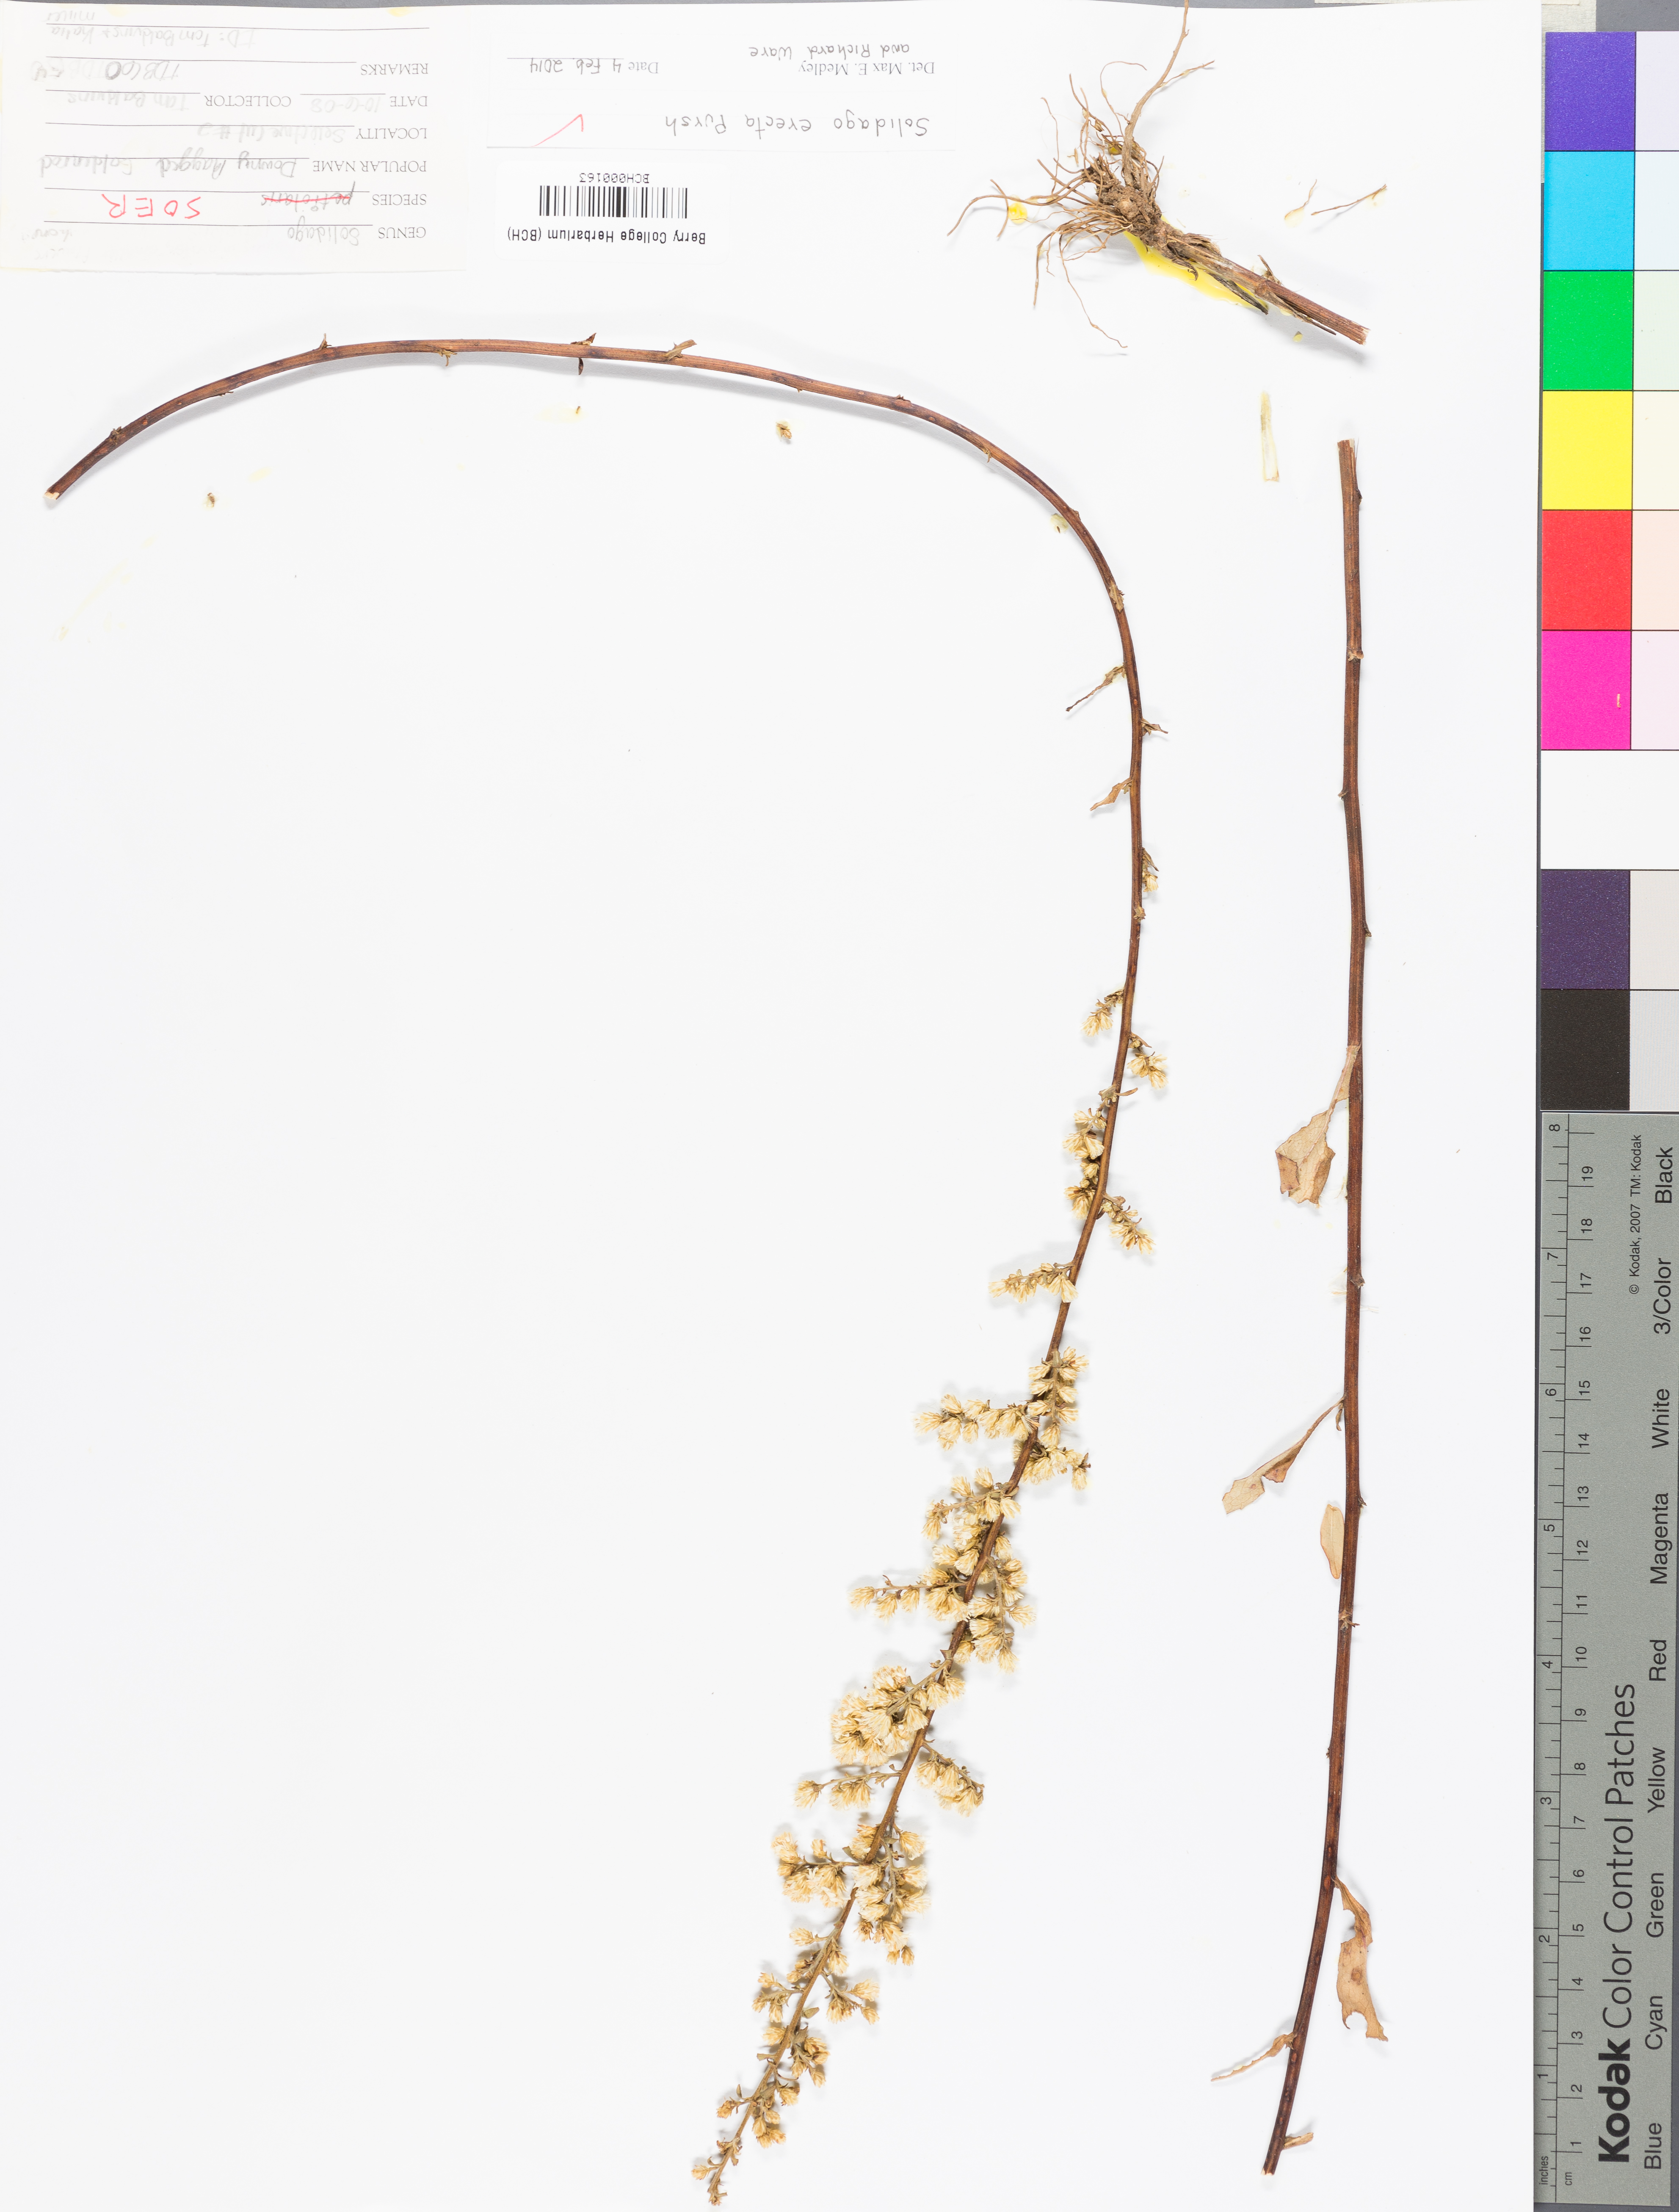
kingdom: Plantae
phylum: Tracheophyta
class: Magnoliopsida
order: Asterales
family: Asteraceae
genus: Solidago
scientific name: Solidago erecta
